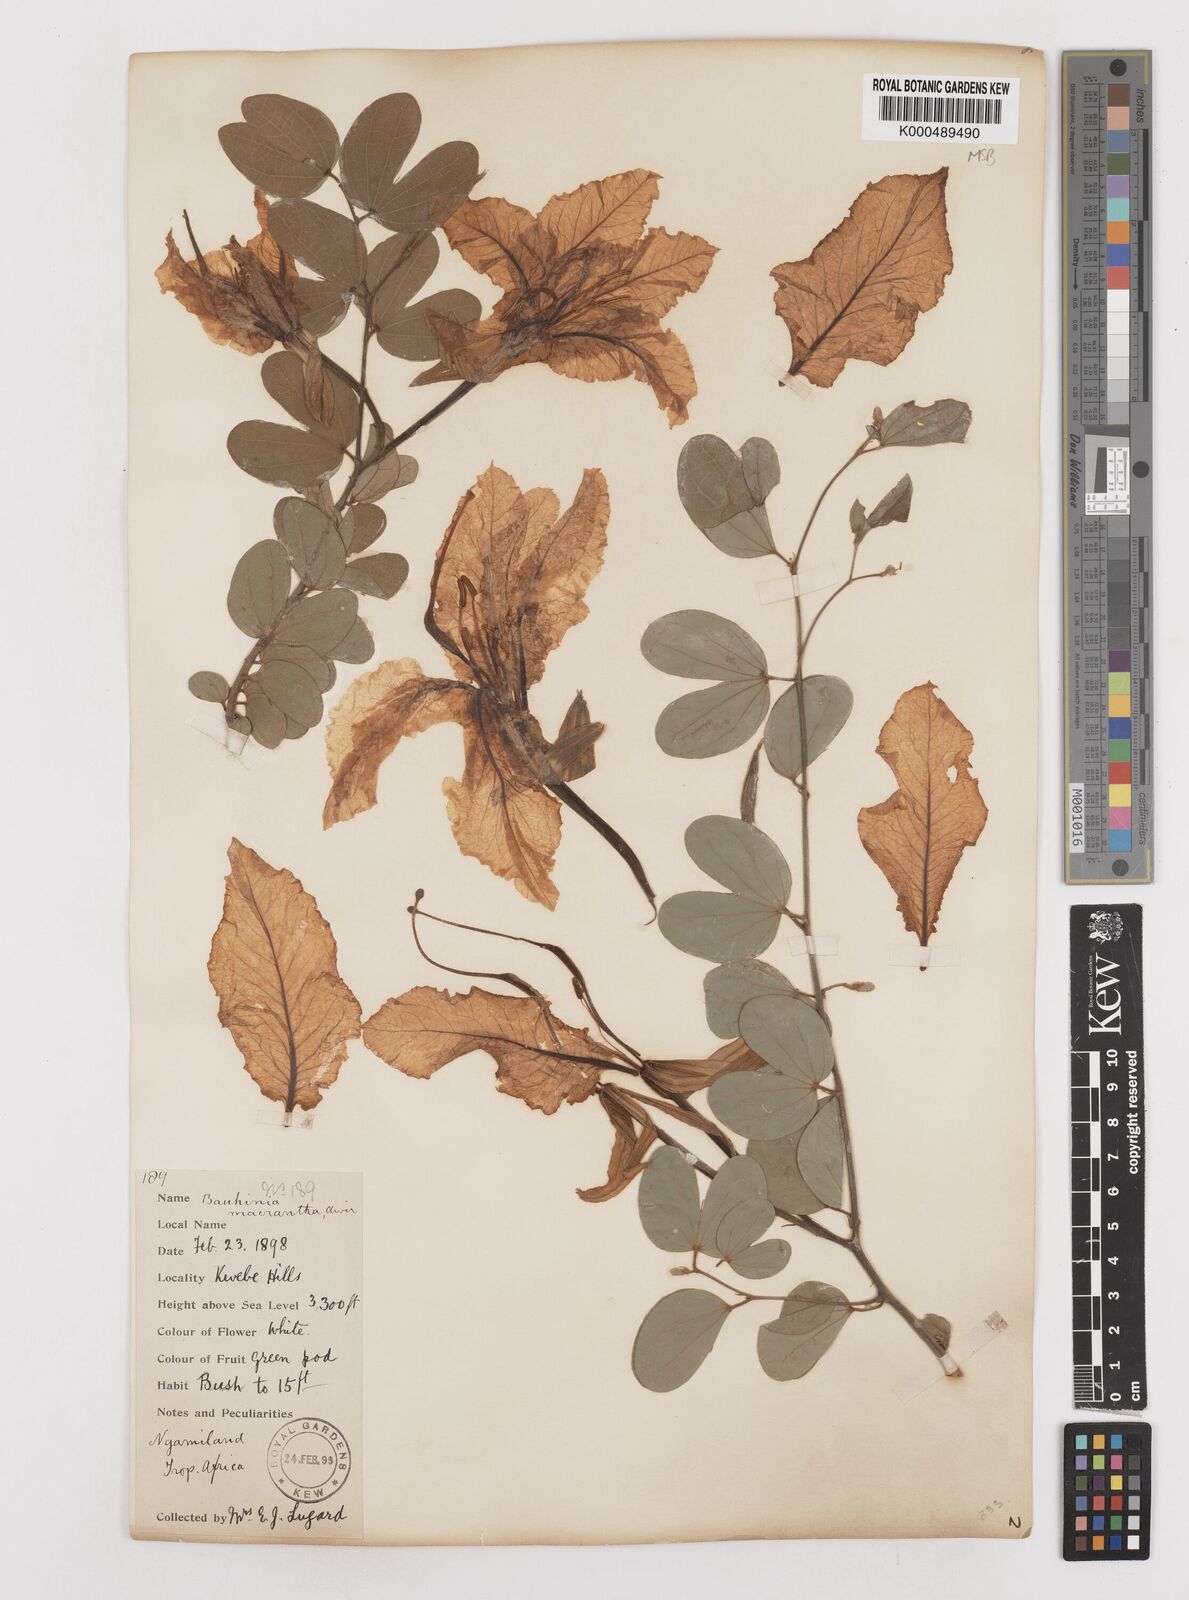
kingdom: Plantae
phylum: Tracheophyta
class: Magnoliopsida
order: Fabales
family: Fabaceae
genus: Bauhinia
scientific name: Bauhinia macrantha
